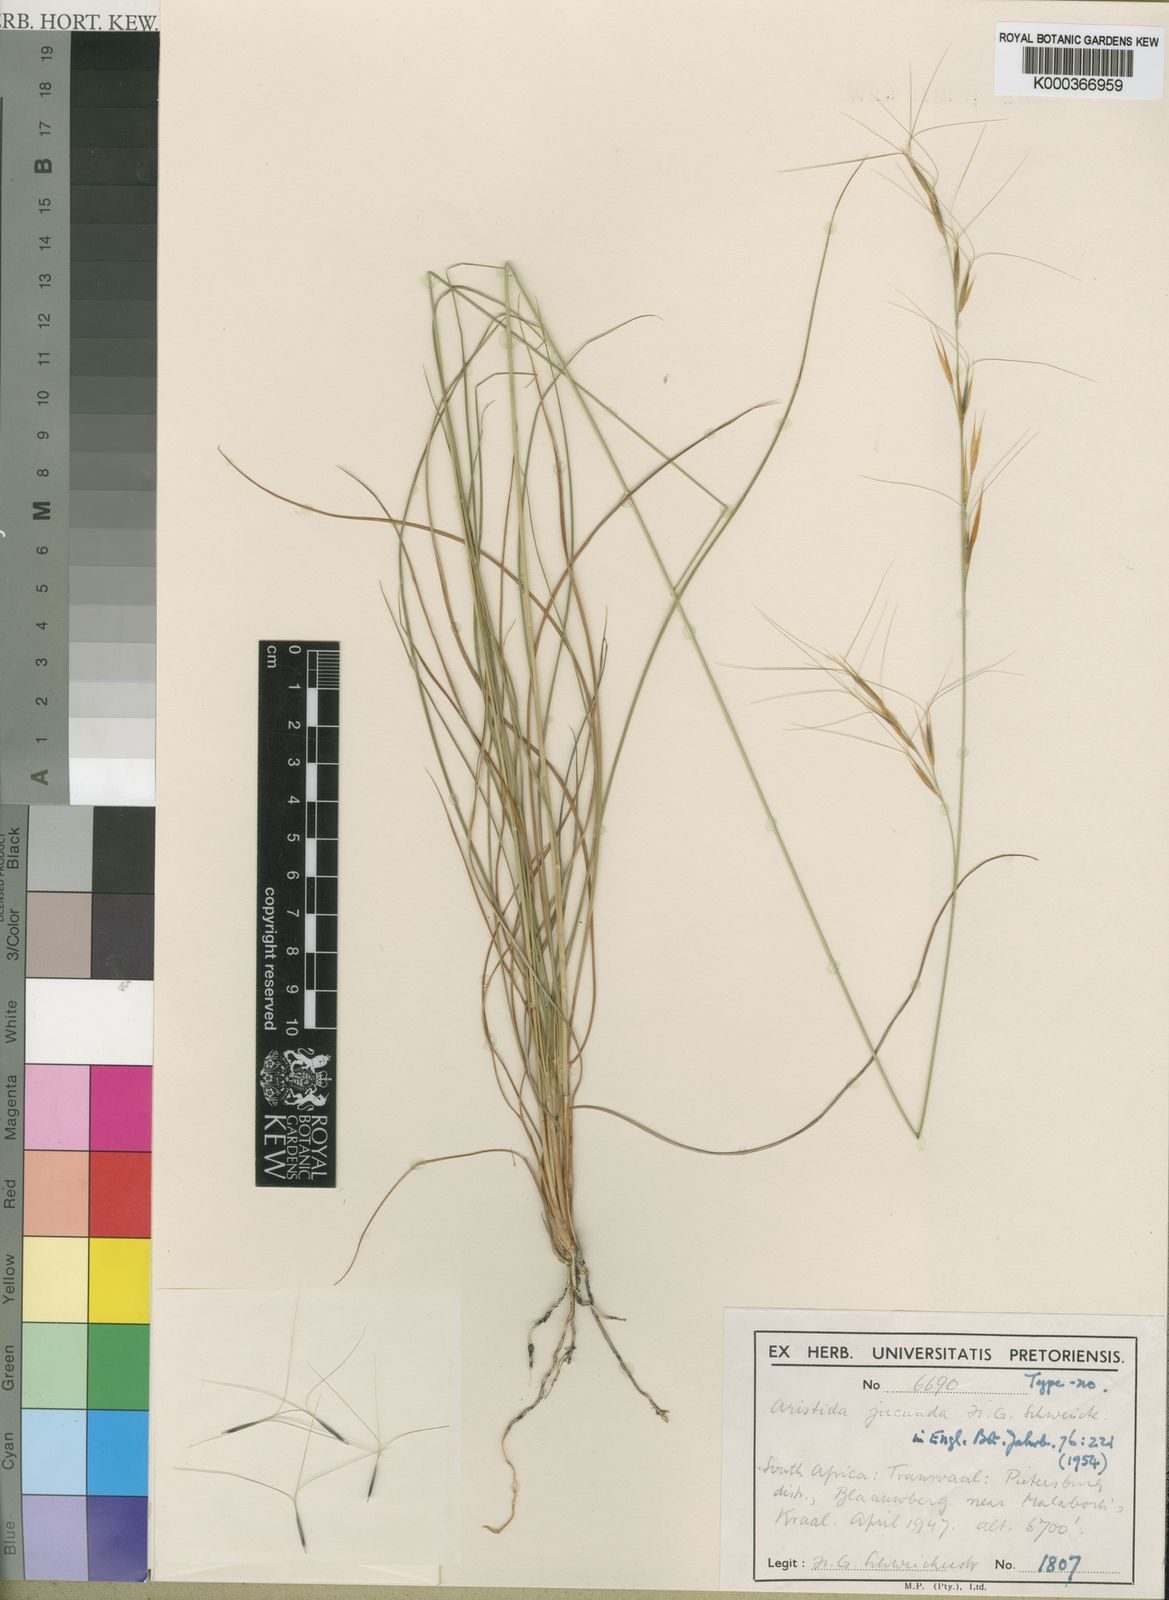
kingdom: Plantae
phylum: Tracheophyta
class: Liliopsida
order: Poales
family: Poaceae
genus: Sartidia
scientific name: Sartidia jucunda
